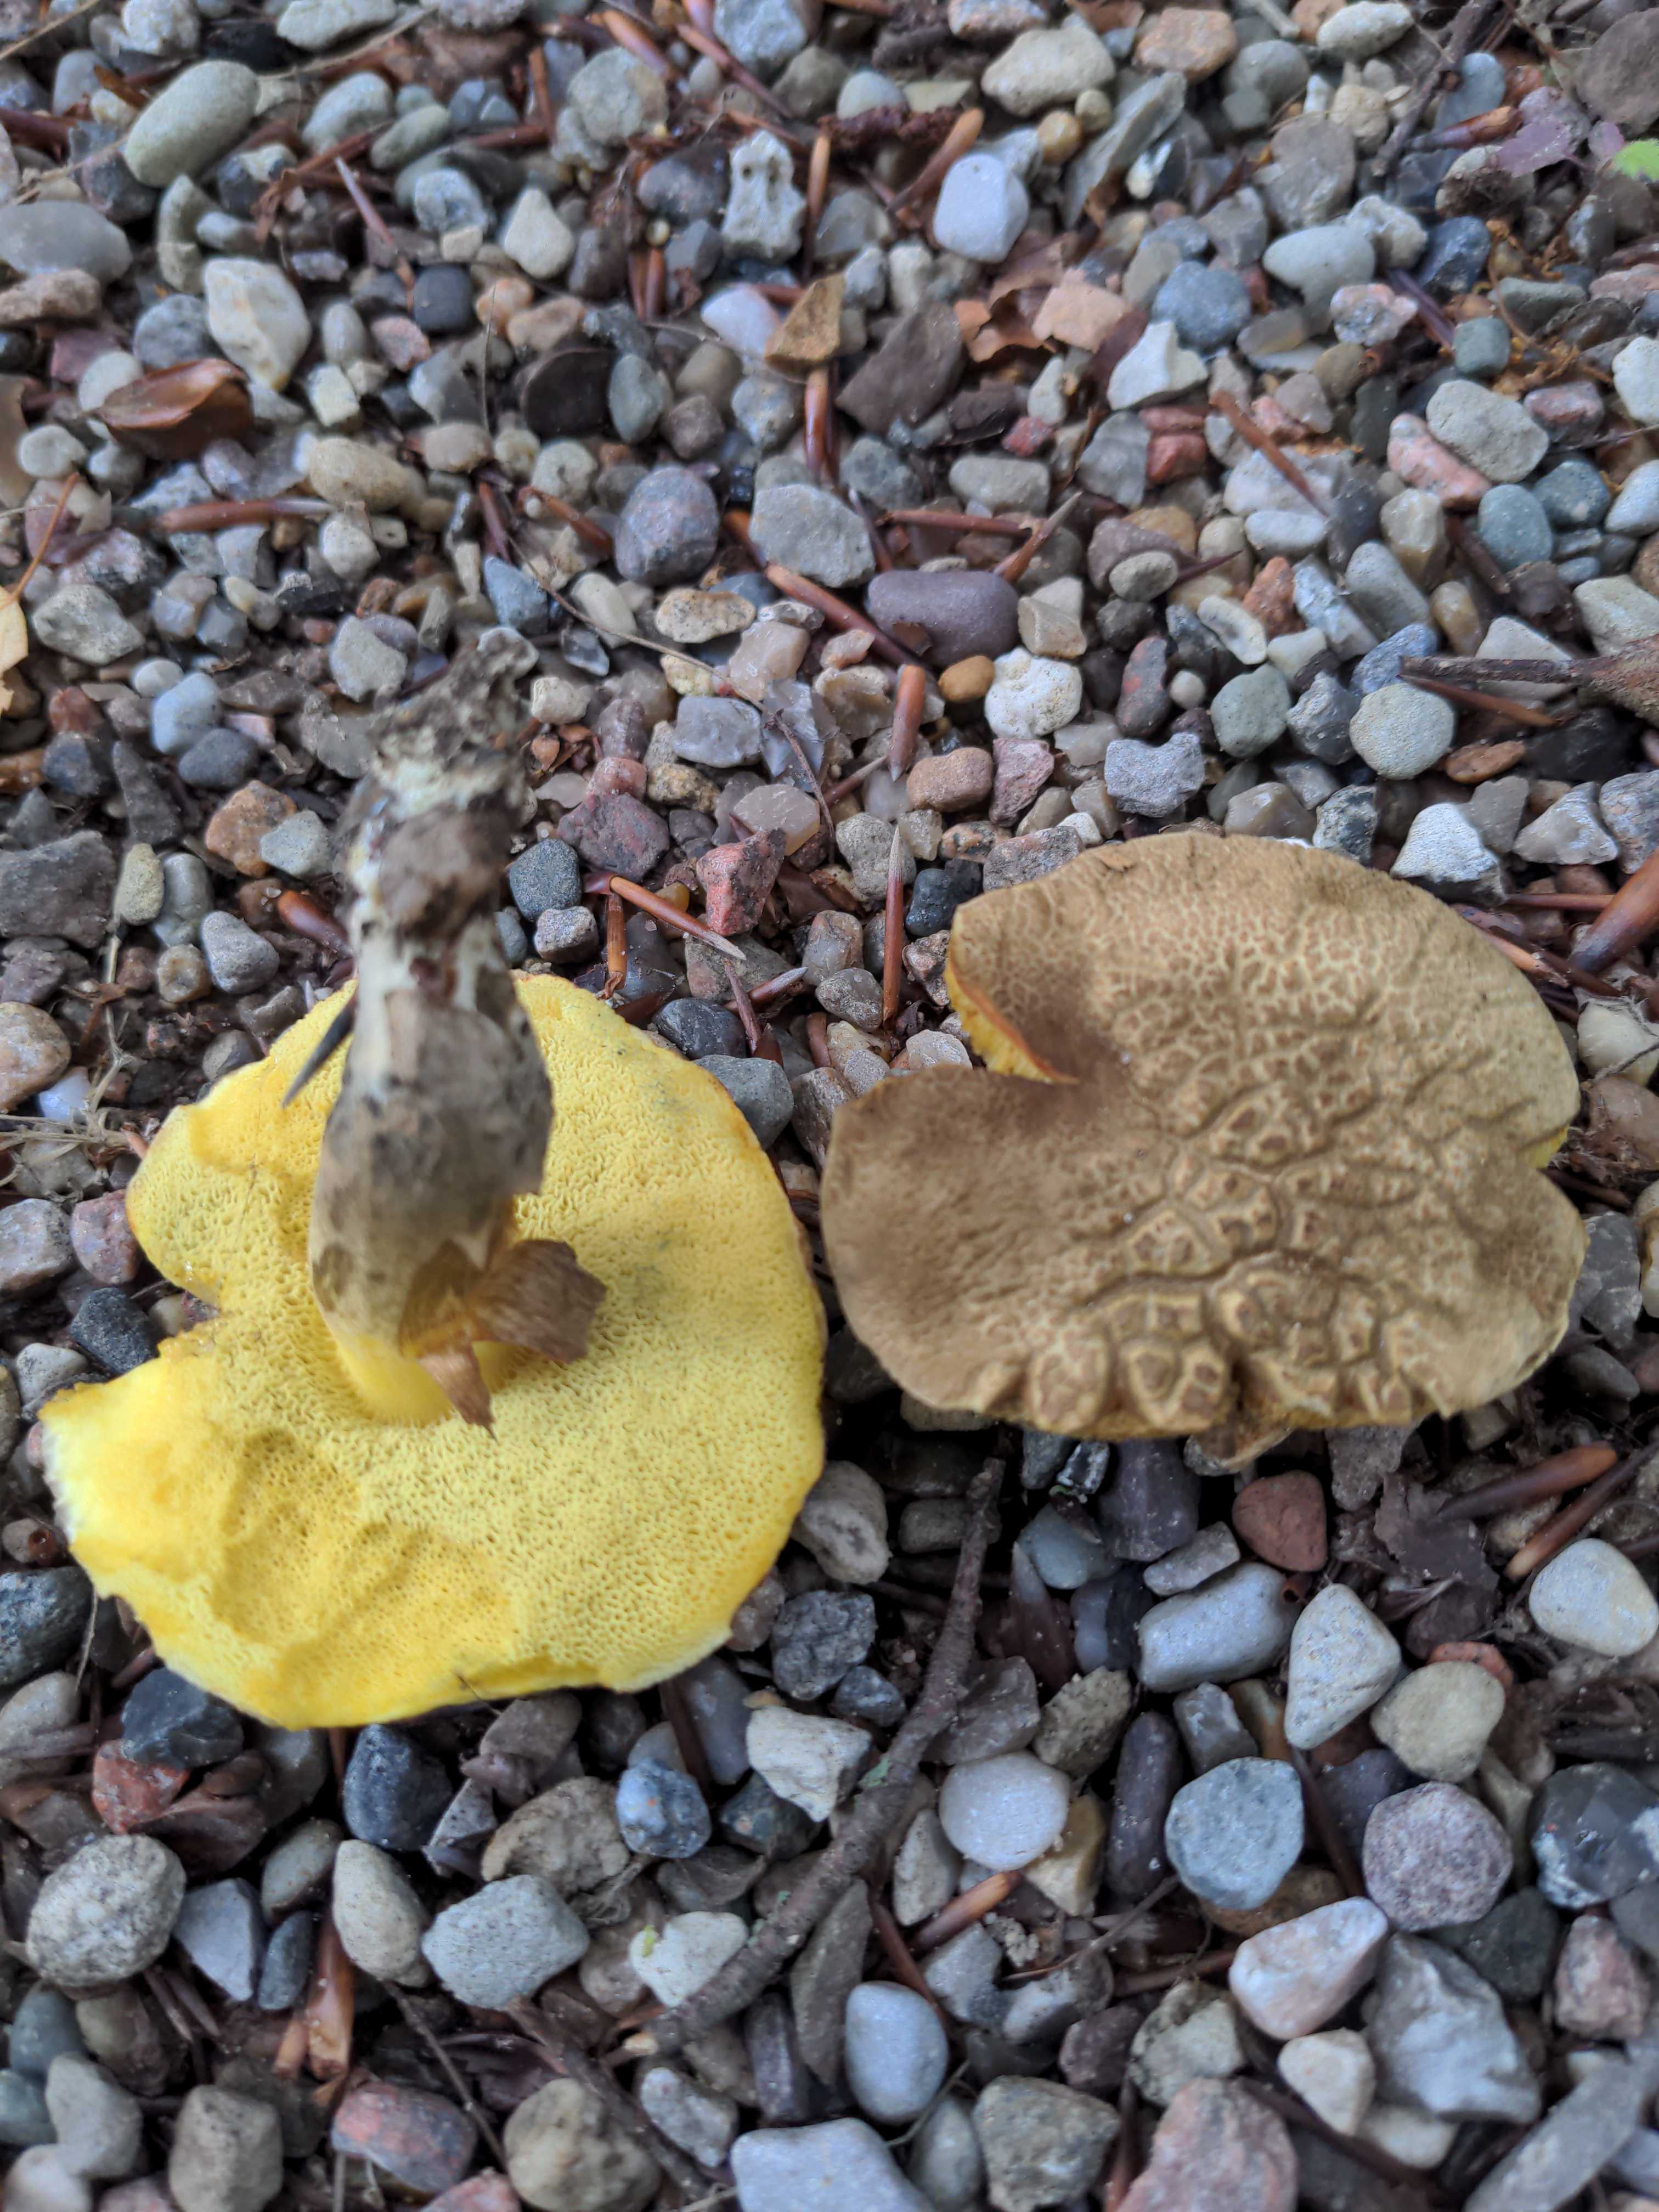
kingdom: Fungi
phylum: Basidiomycota
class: Agaricomycetes
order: Boletales
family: Boletaceae
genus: Xerocomellus
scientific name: Xerocomellus porosporus
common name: hvidsprukken rørhat
